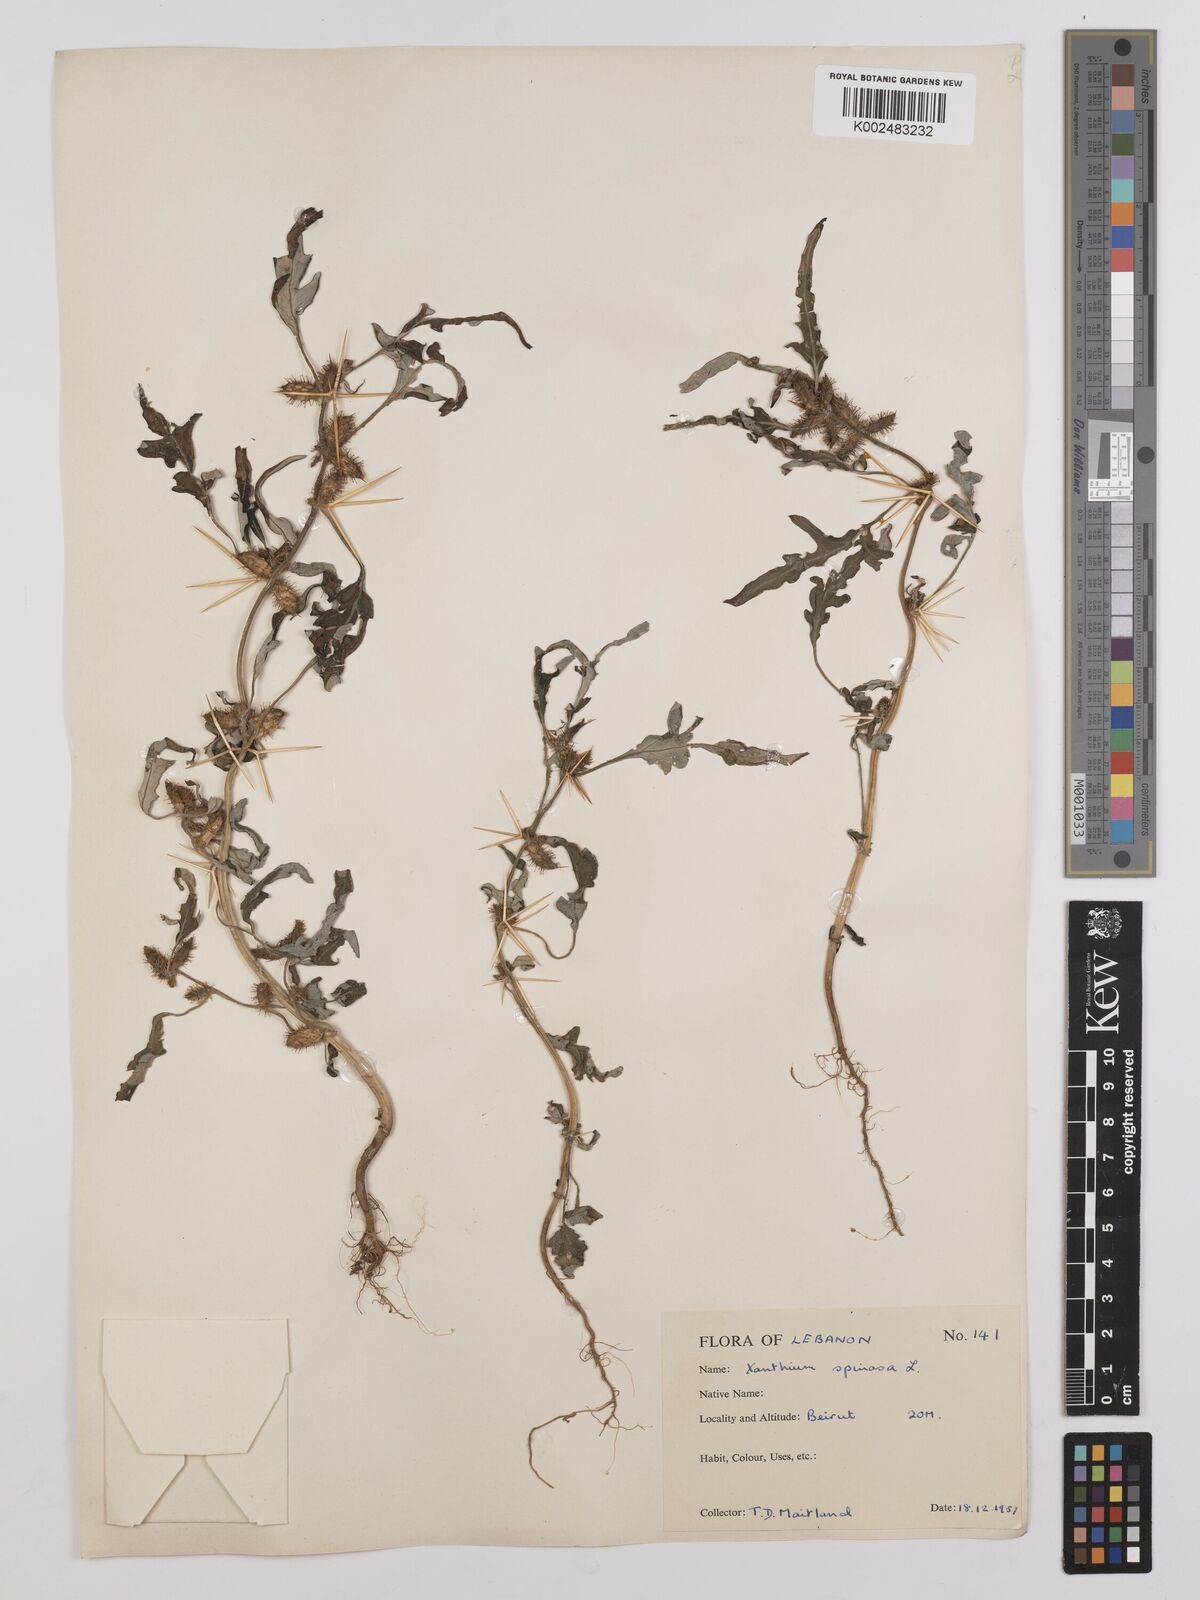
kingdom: Plantae
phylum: Tracheophyta
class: Magnoliopsida
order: Asterales
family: Asteraceae
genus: Xanthium
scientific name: Xanthium spinosum
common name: Spiny cocklebur
